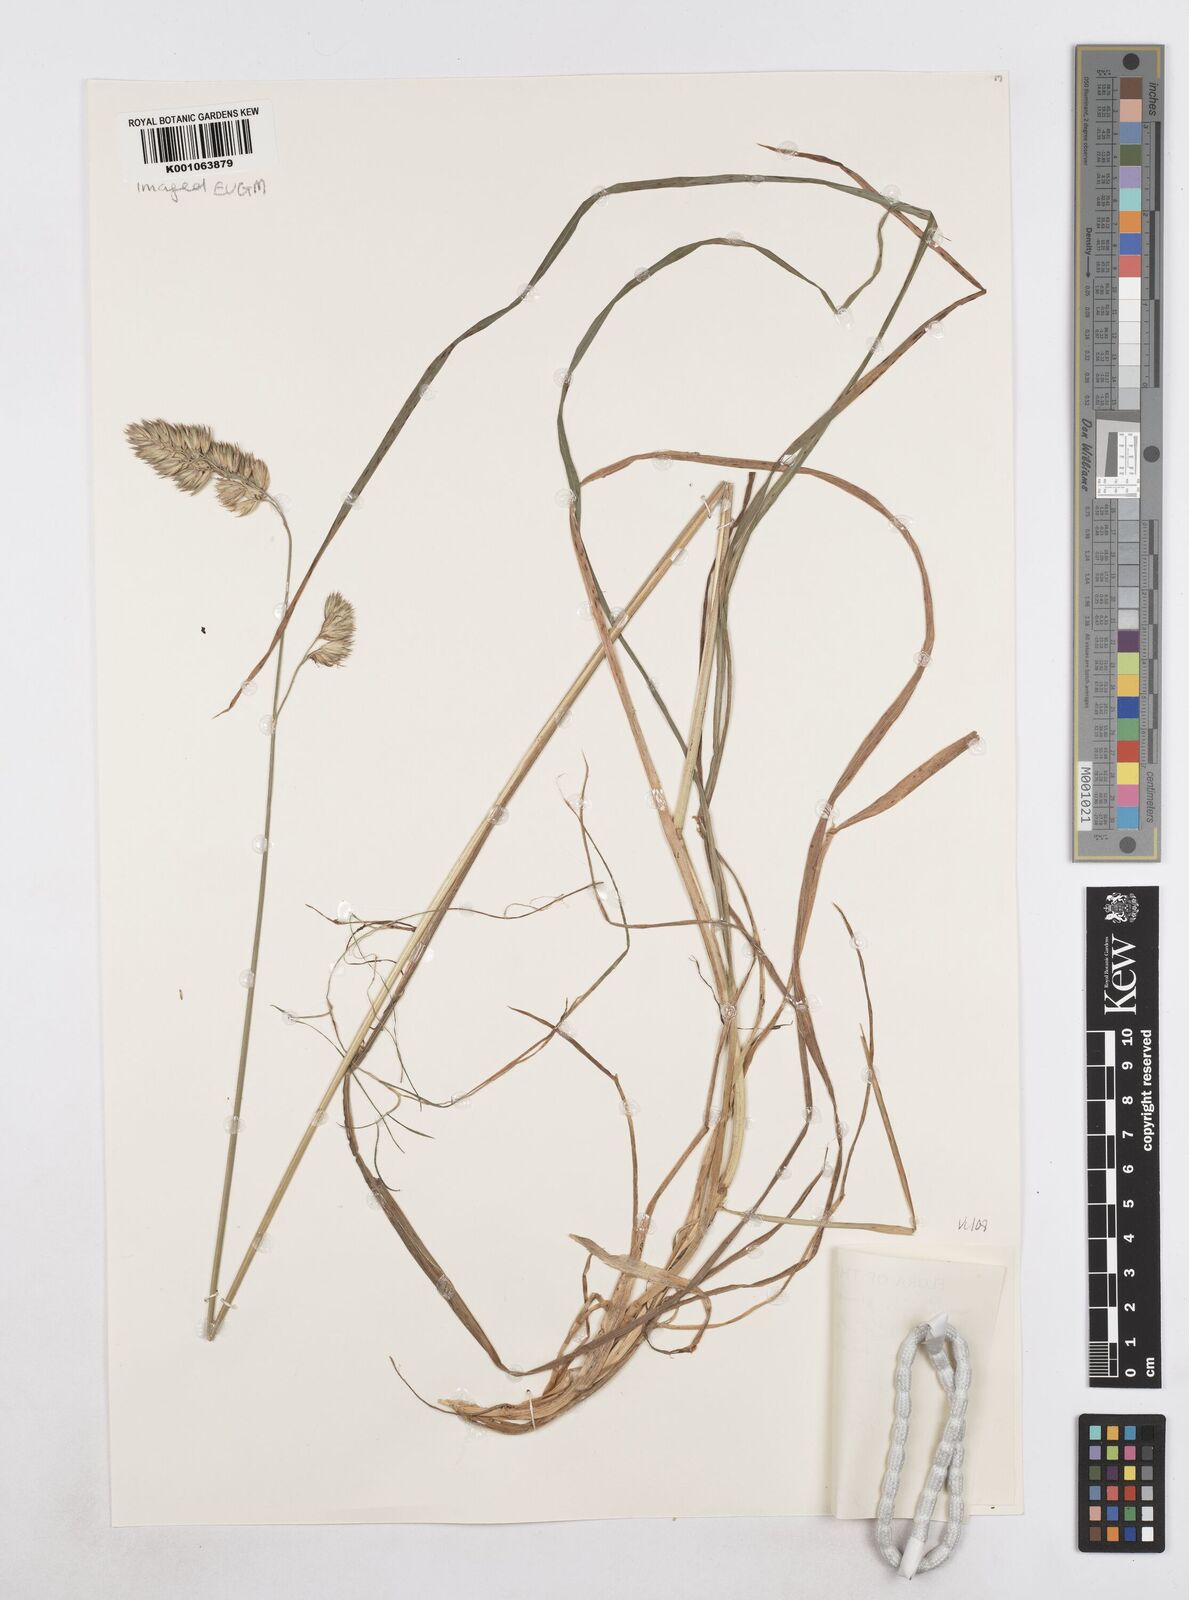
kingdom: Plantae
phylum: Tracheophyta
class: Liliopsida
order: Poales
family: Poaceae
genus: Dactylis
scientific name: Dactylis glomerata
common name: Orchardgrass
